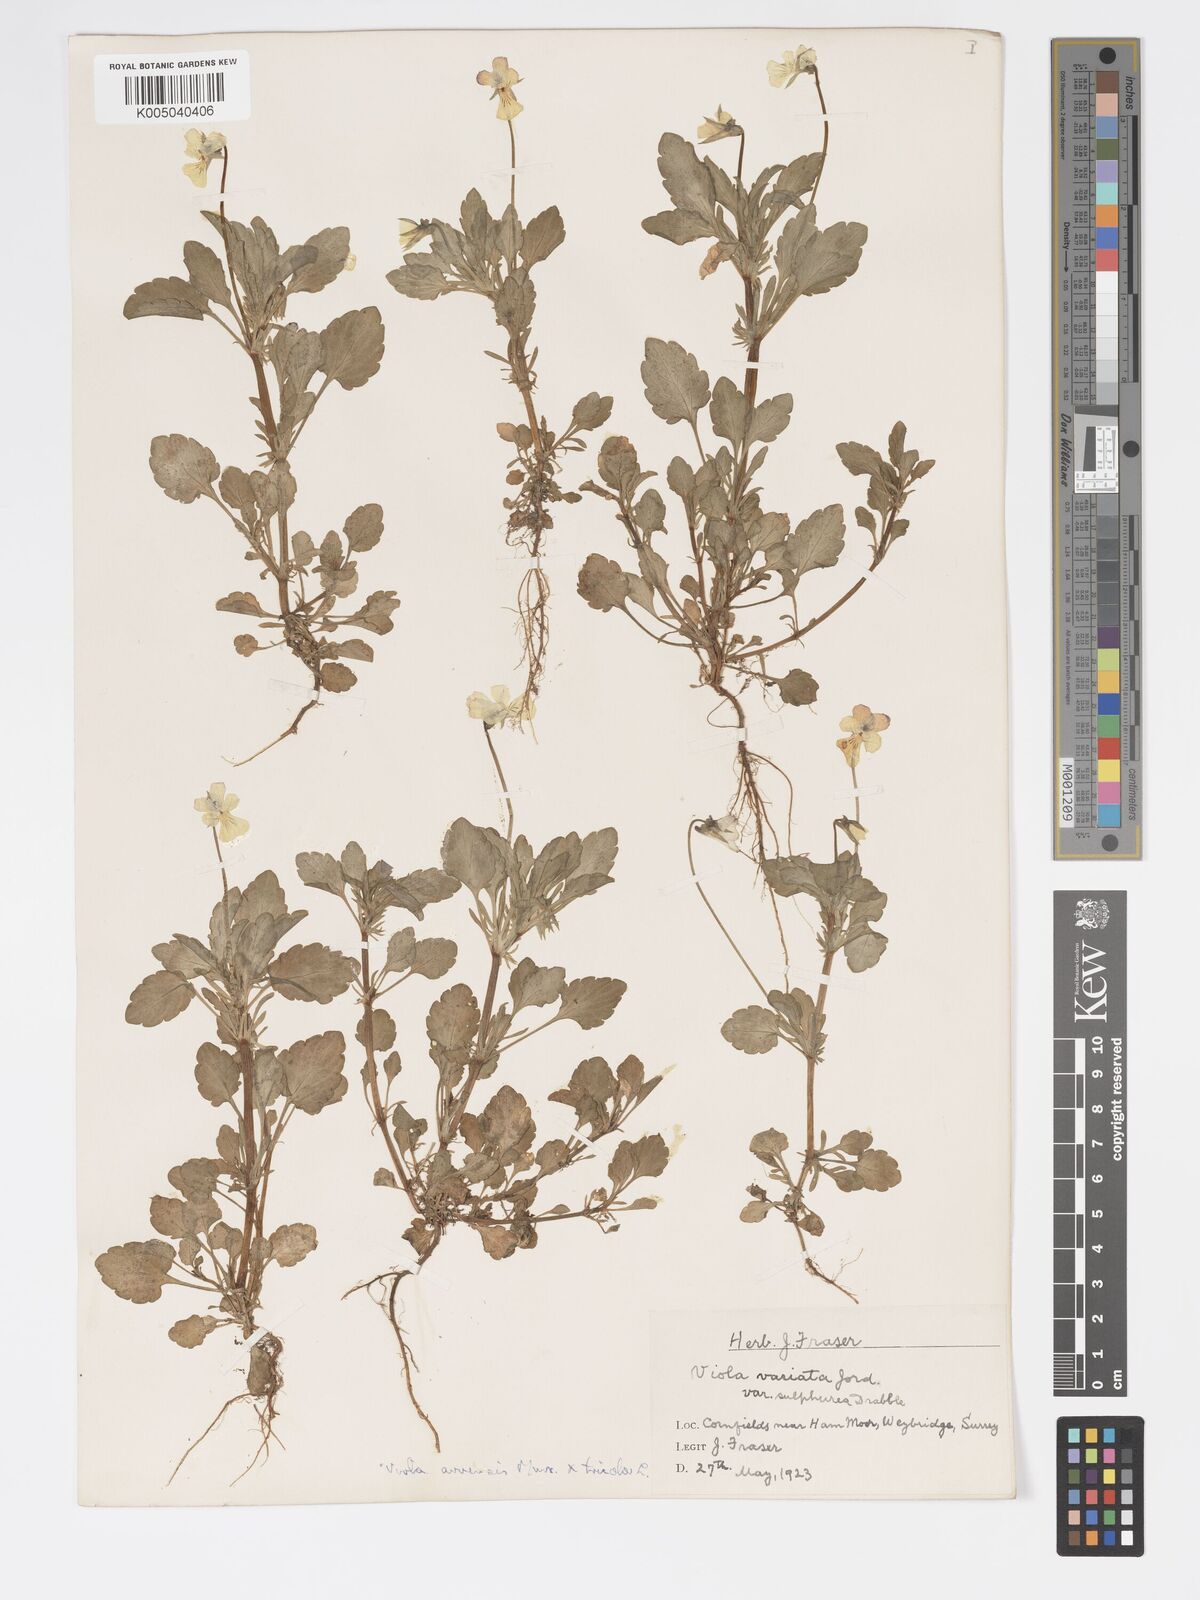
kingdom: Plantae
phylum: Tracheophyta
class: Magnoliopsida
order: Malpighiales
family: Violaceae
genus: Viola
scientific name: Viola arvensis
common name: Field pansy
